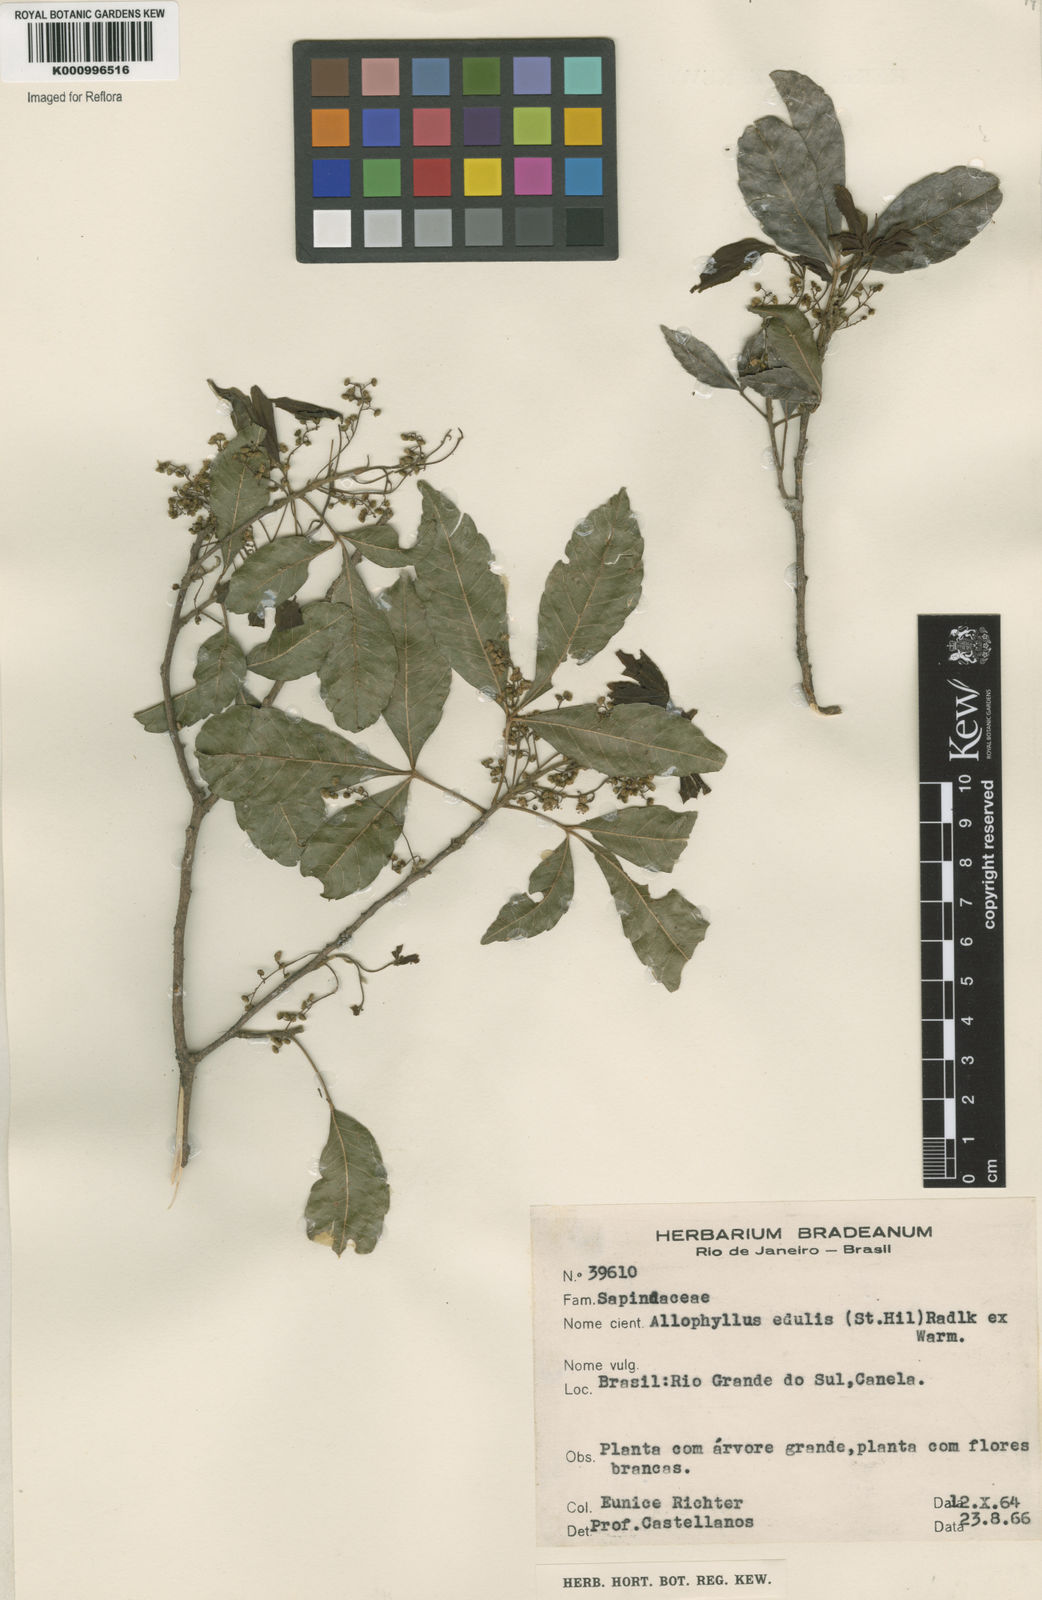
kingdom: Plantae
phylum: Tracheophyta
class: Magnoliopsida
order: Sapindales
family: Sapindaceae
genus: Allophylus
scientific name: Allophylus edulis
